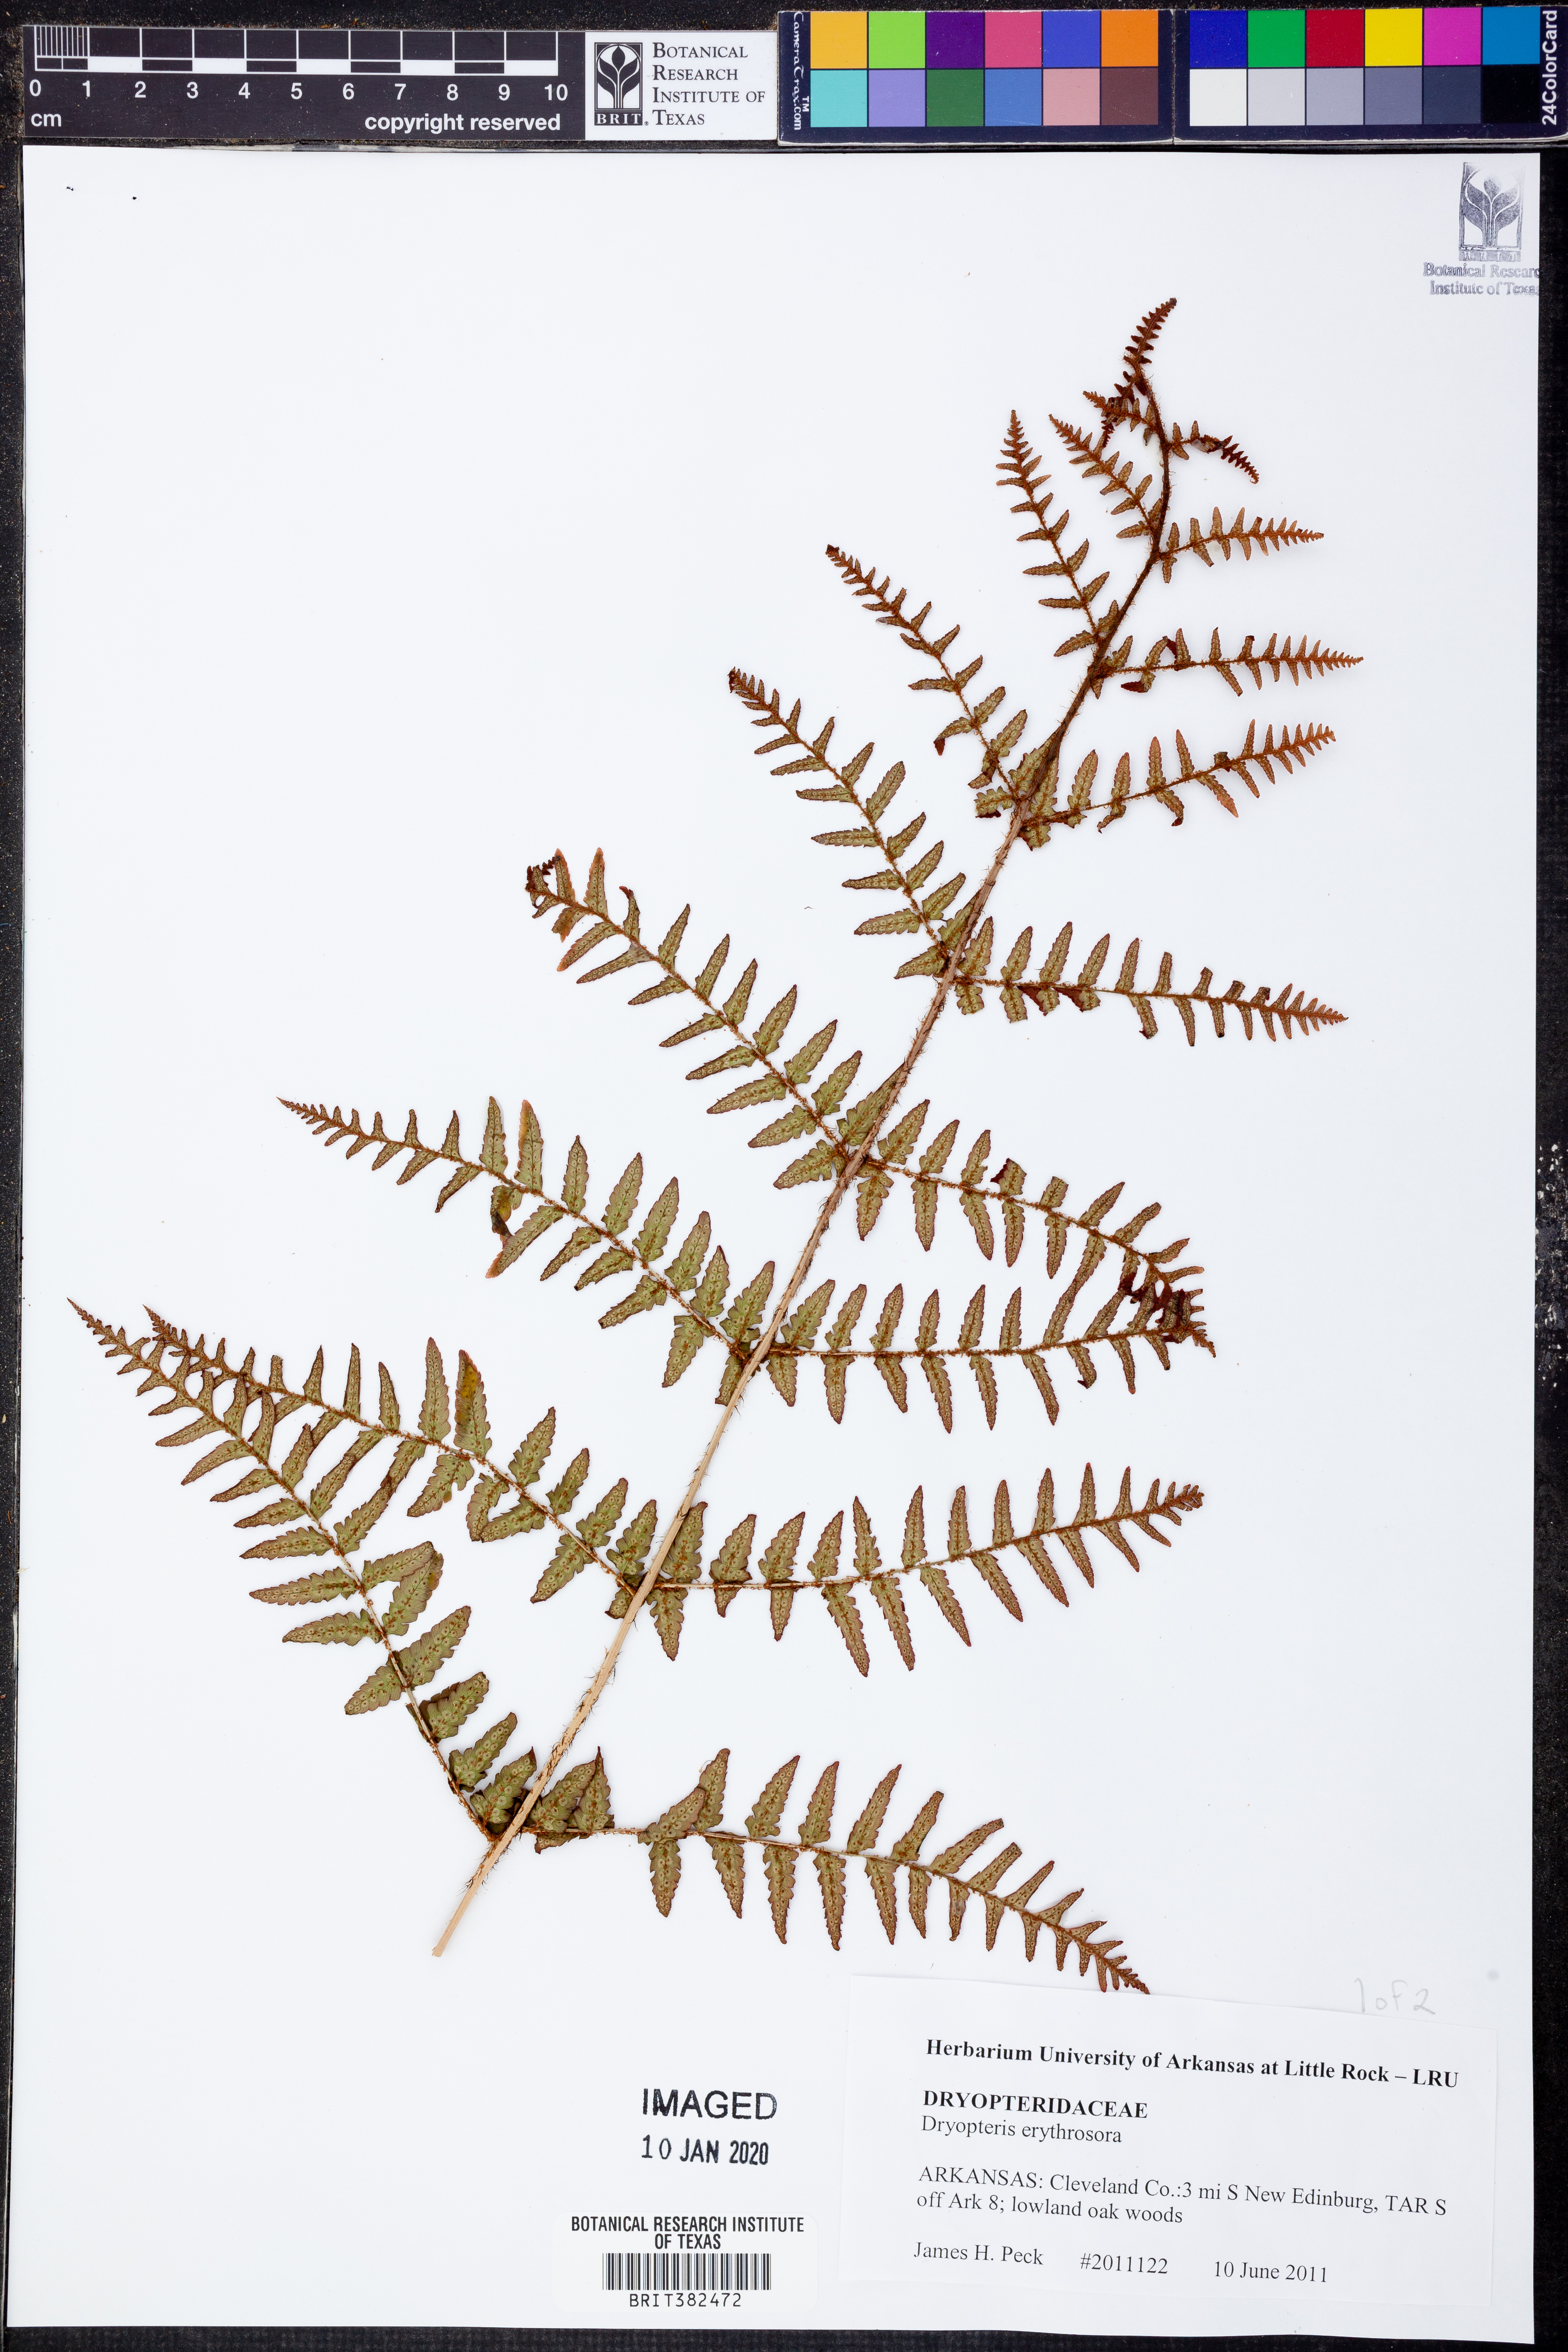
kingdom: Plantae
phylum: Tracheophyta
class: Polypodiopsida
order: Polypodiales
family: Dryopteridaceae
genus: Dryopteris
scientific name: Dryopteris erythrosora
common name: Autumn fern
